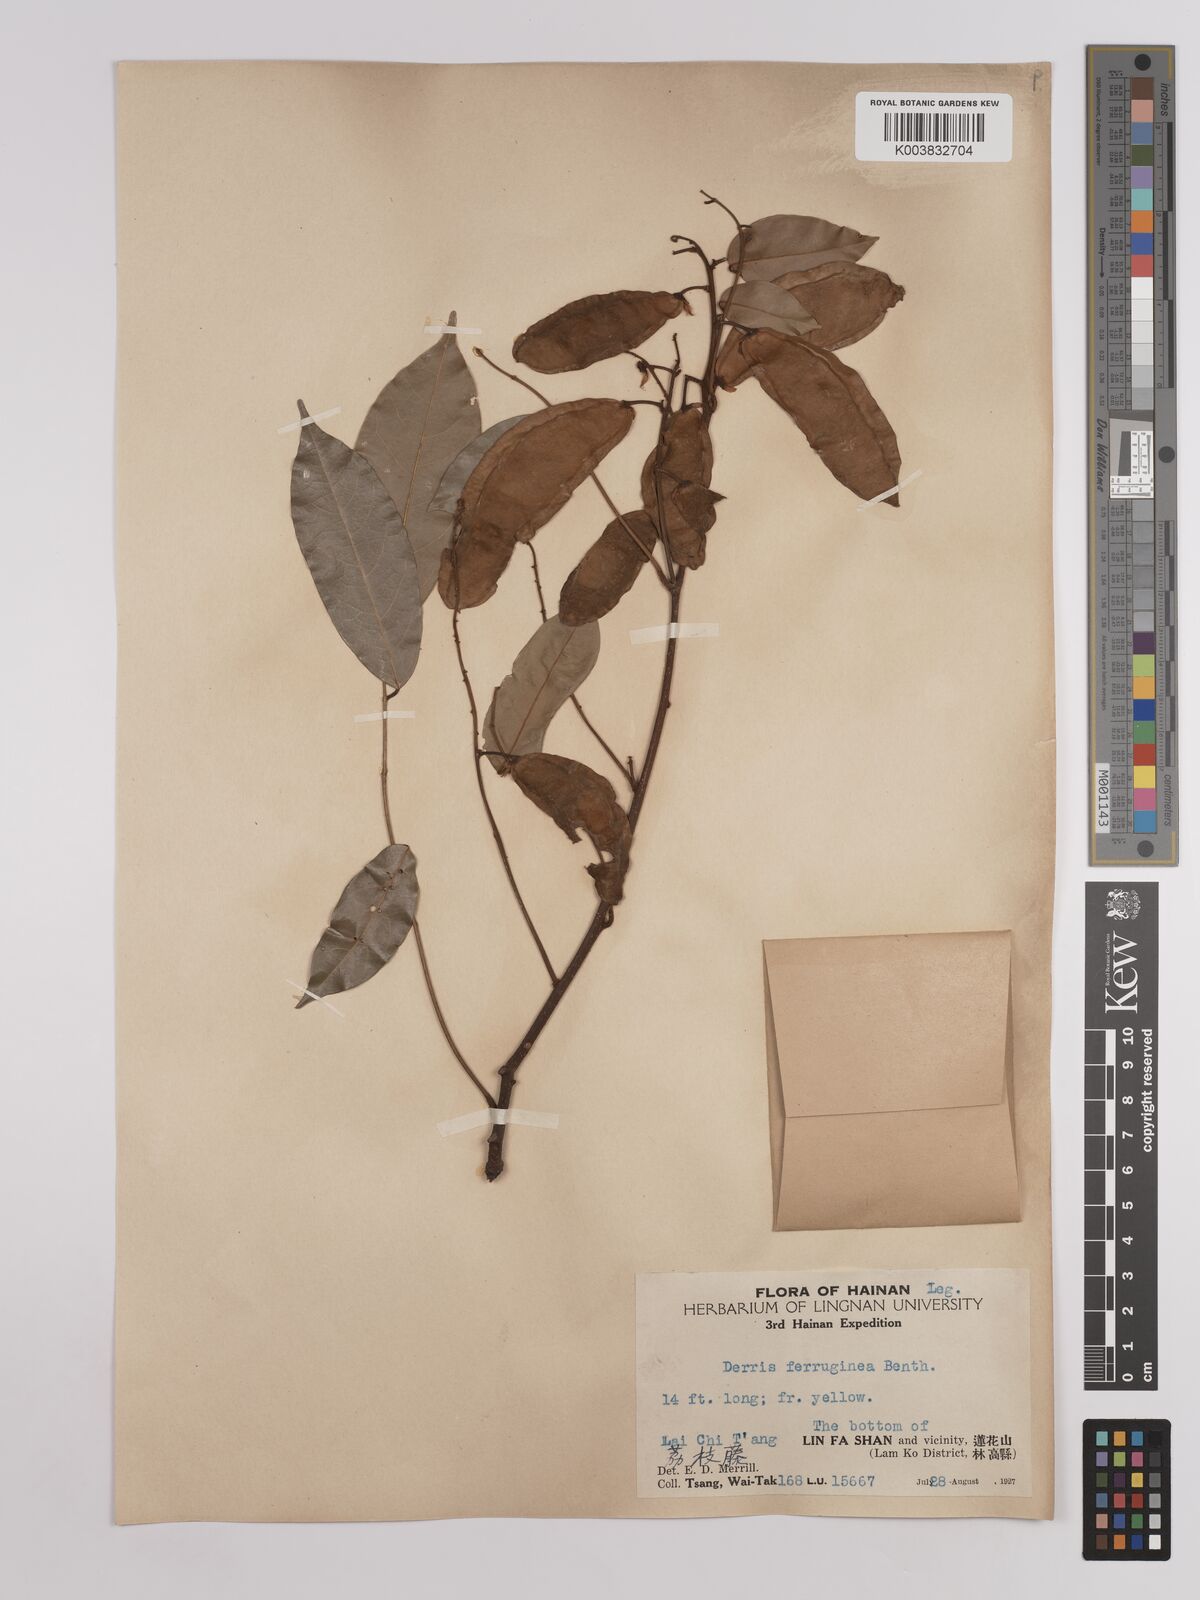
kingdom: Plantae
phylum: Tracheophyta
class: Magnoliopsida
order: Fabales
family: Fabaceae
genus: Derris
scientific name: Derris ferruginea
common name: Indian tubaroot
